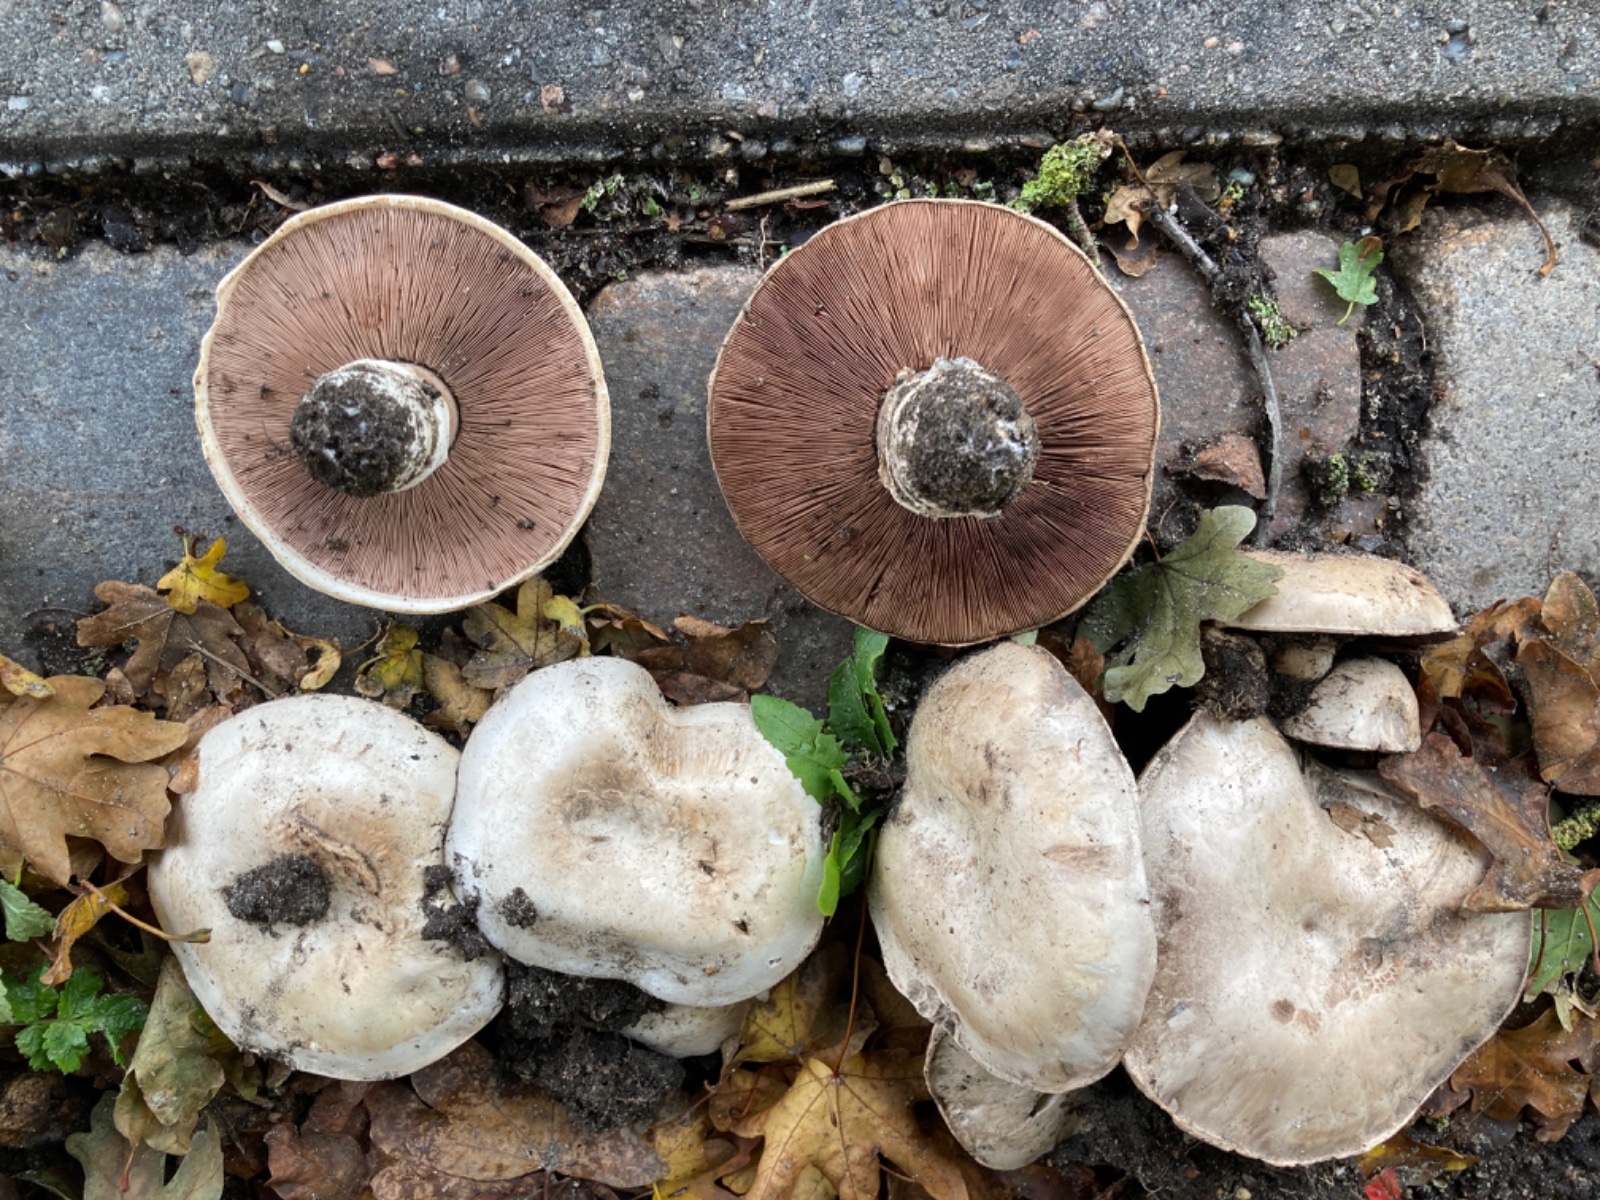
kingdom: Fungi
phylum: Basidiomycota
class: Agaricomycetes
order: Agaricales
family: Agaricaceae
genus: Agaricus
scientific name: Agaricus bitorquis
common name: vej-champignon
